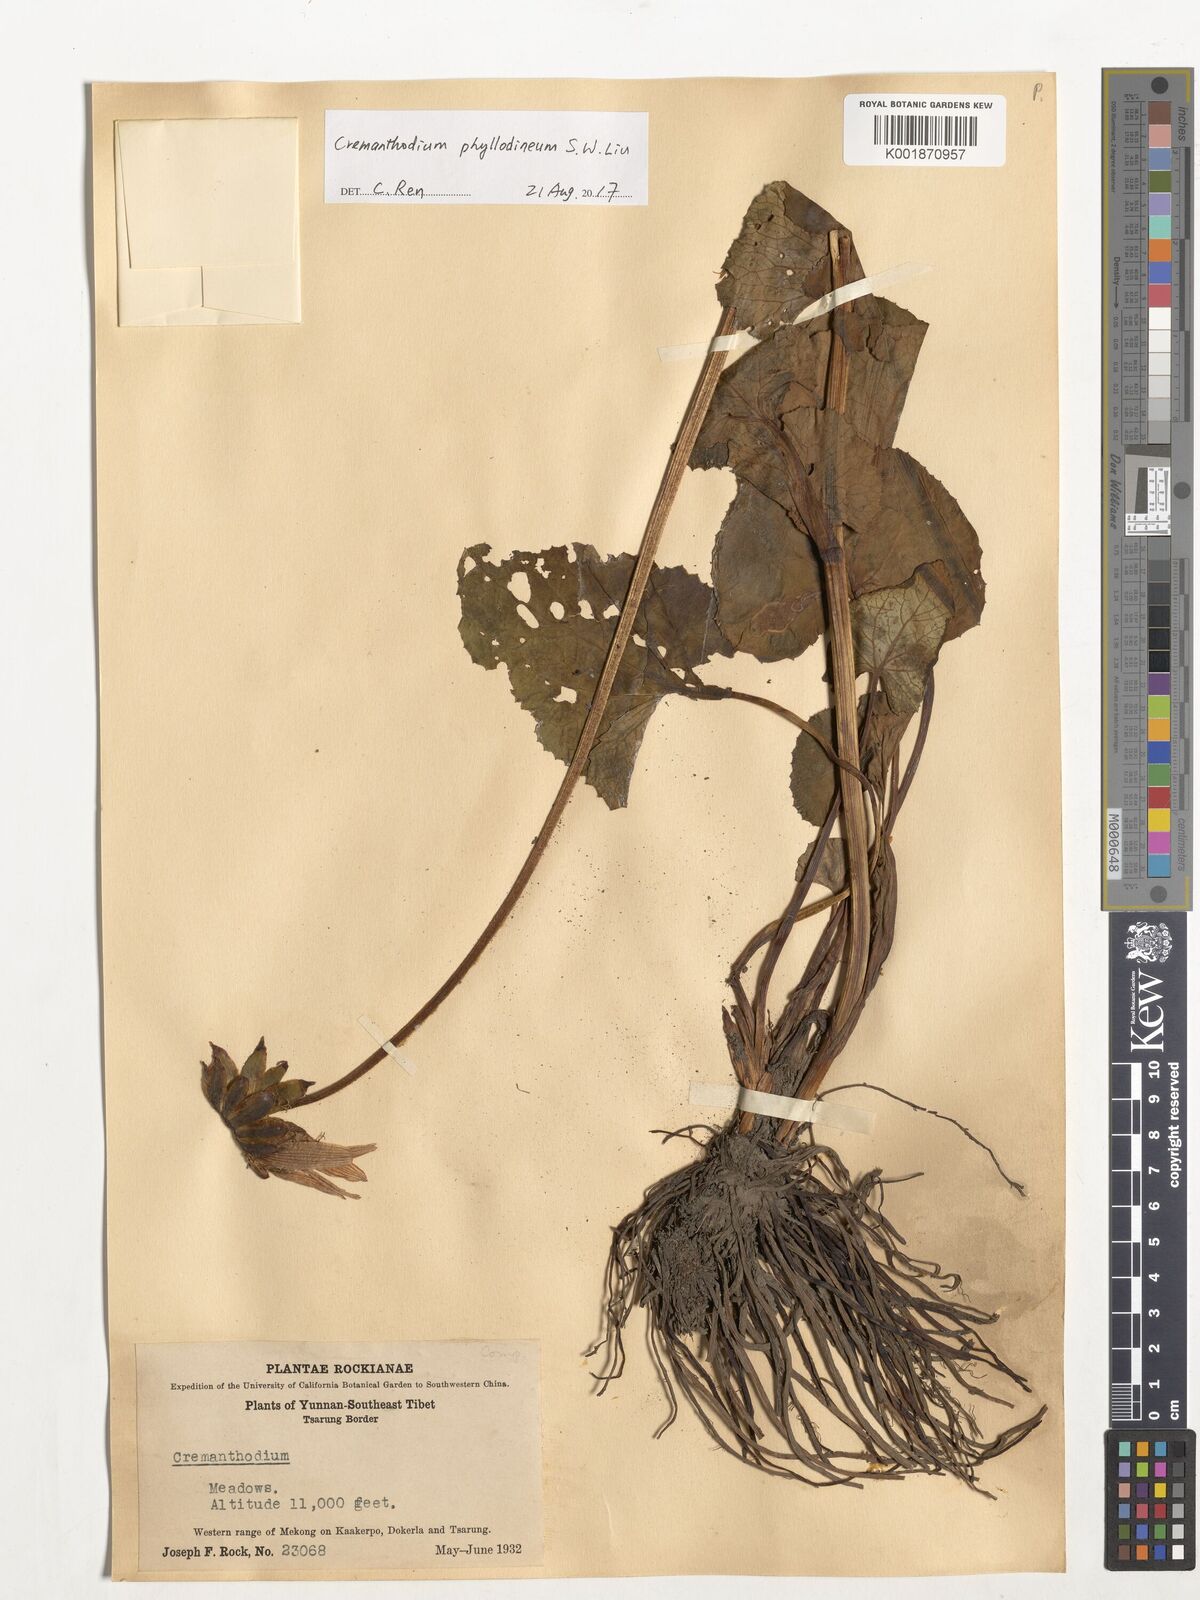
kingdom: Plantae
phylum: Tracheophyta
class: Magnoliopsida
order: Asterales
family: Asteraceae
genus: Cremanthodium
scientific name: Cremanthodium phyllodineum
